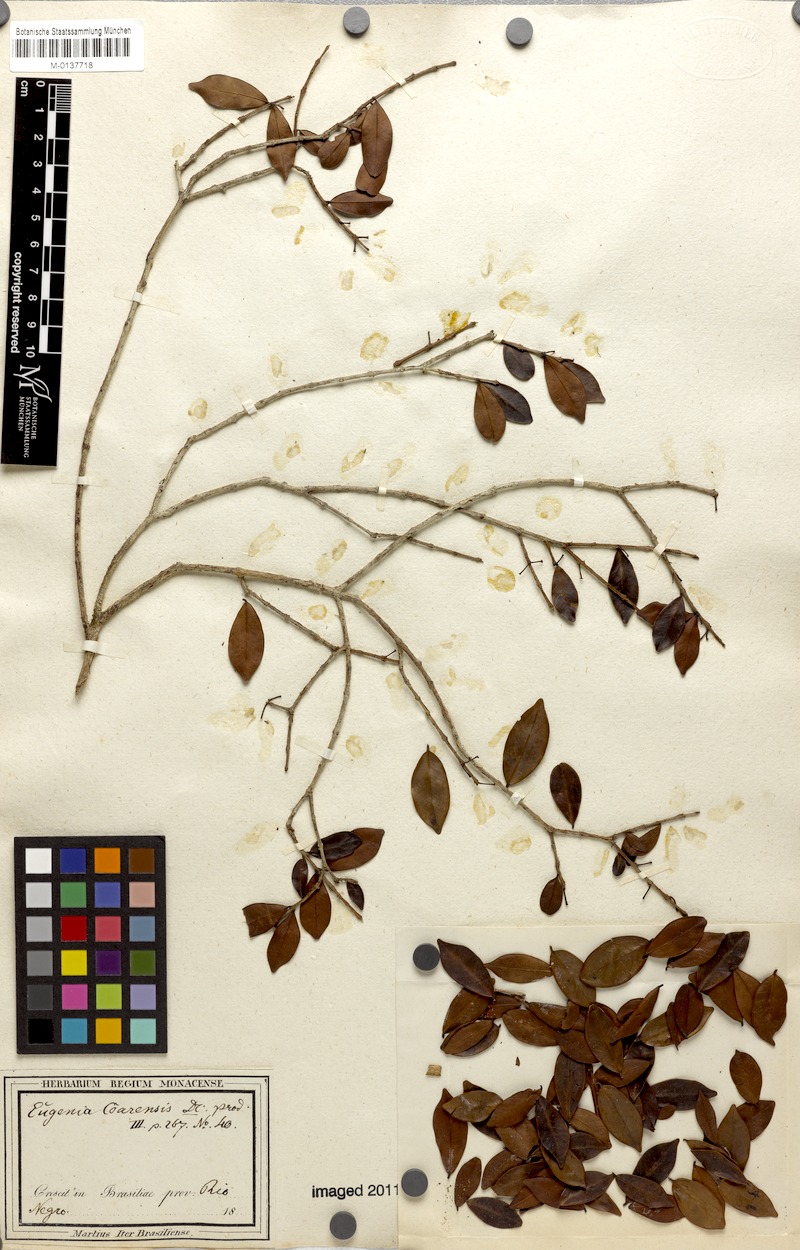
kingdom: Plantae
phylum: Tracheophyta
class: Magnoliopsida
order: Myrtales
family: Myrtaceae
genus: Eugenia
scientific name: Eugenia punicifolia
